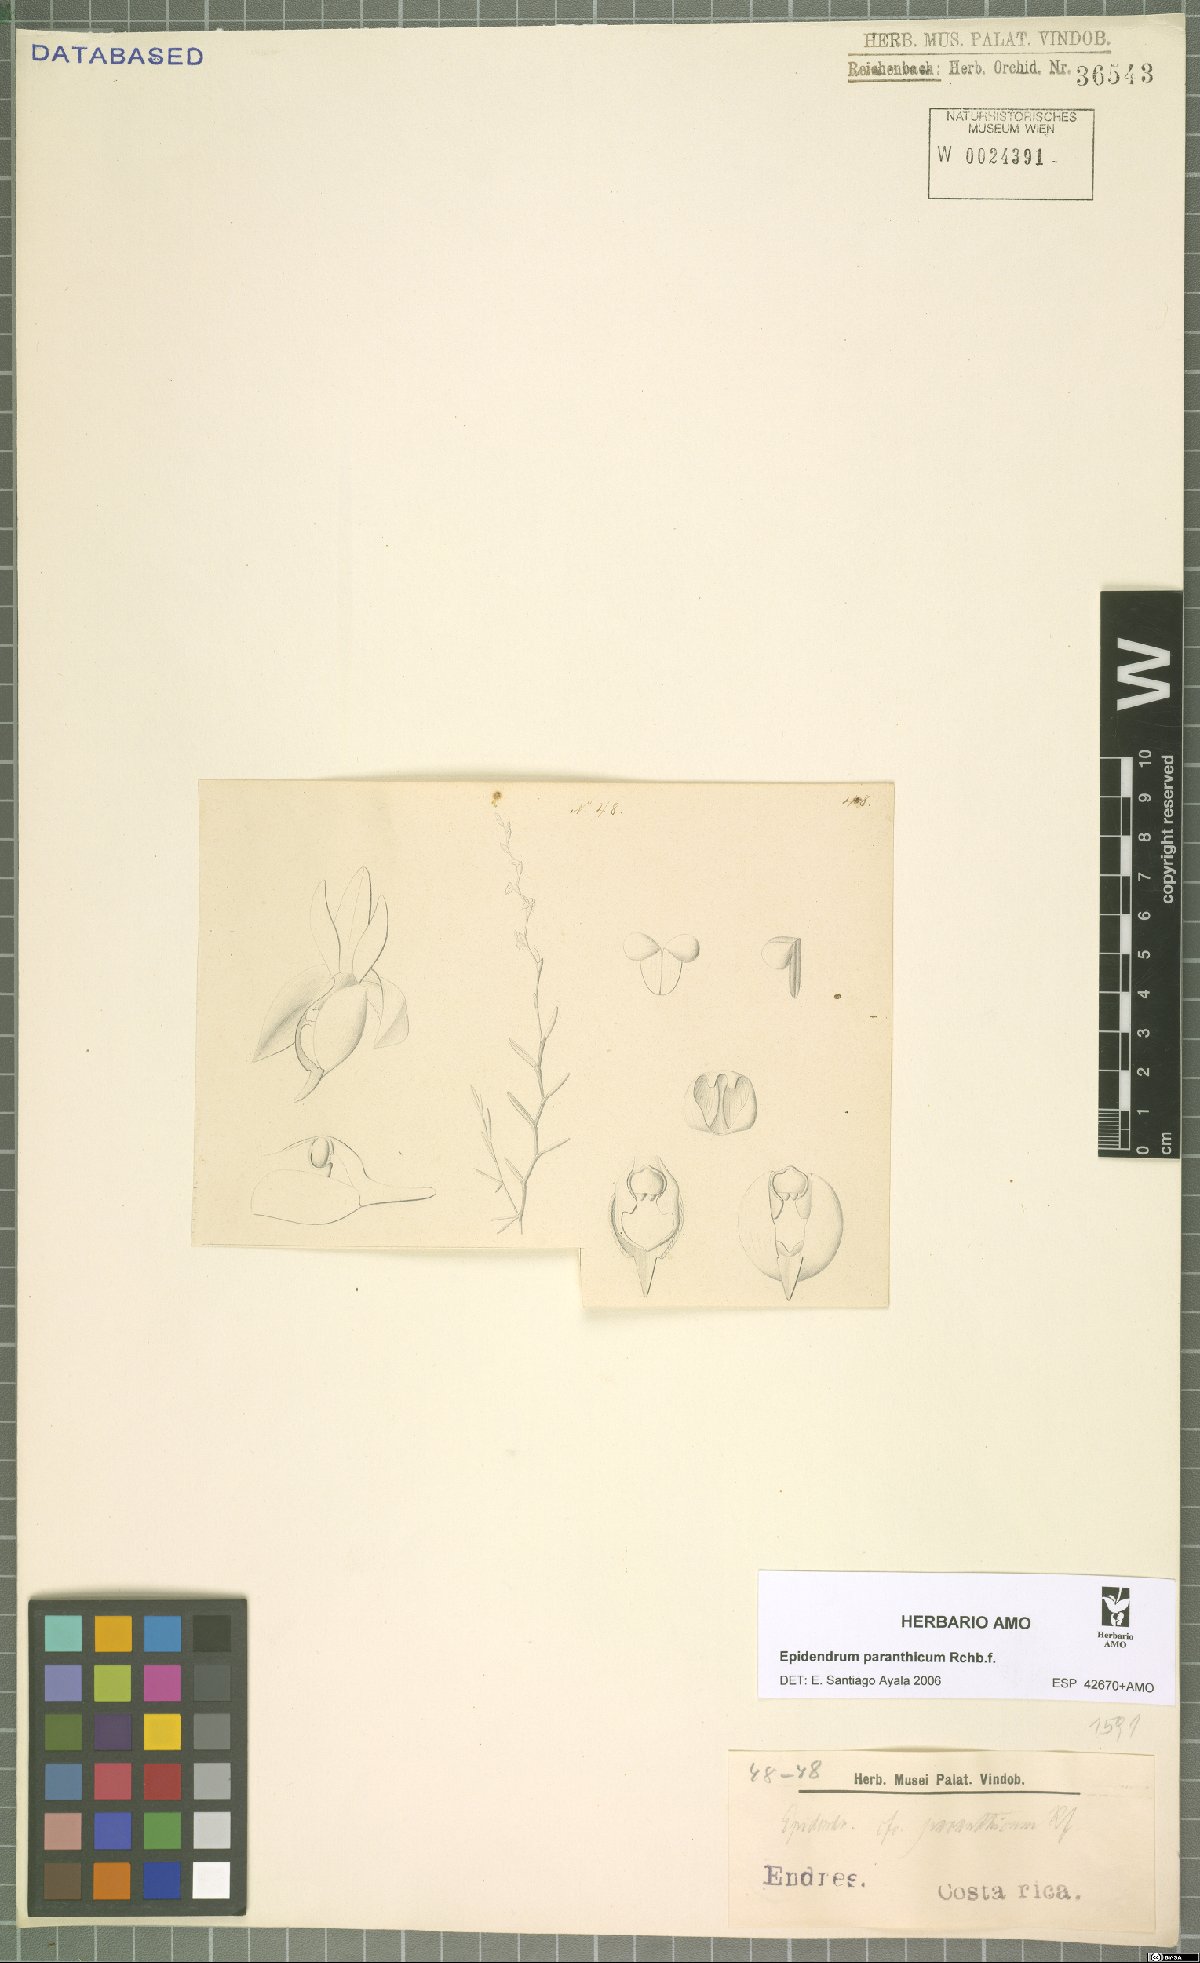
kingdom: Plantae
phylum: Tracheophyta
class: Liliopsida
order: Asparagales
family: Orchidaceae
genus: Epidendrum
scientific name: Epidendrum paranthicum
